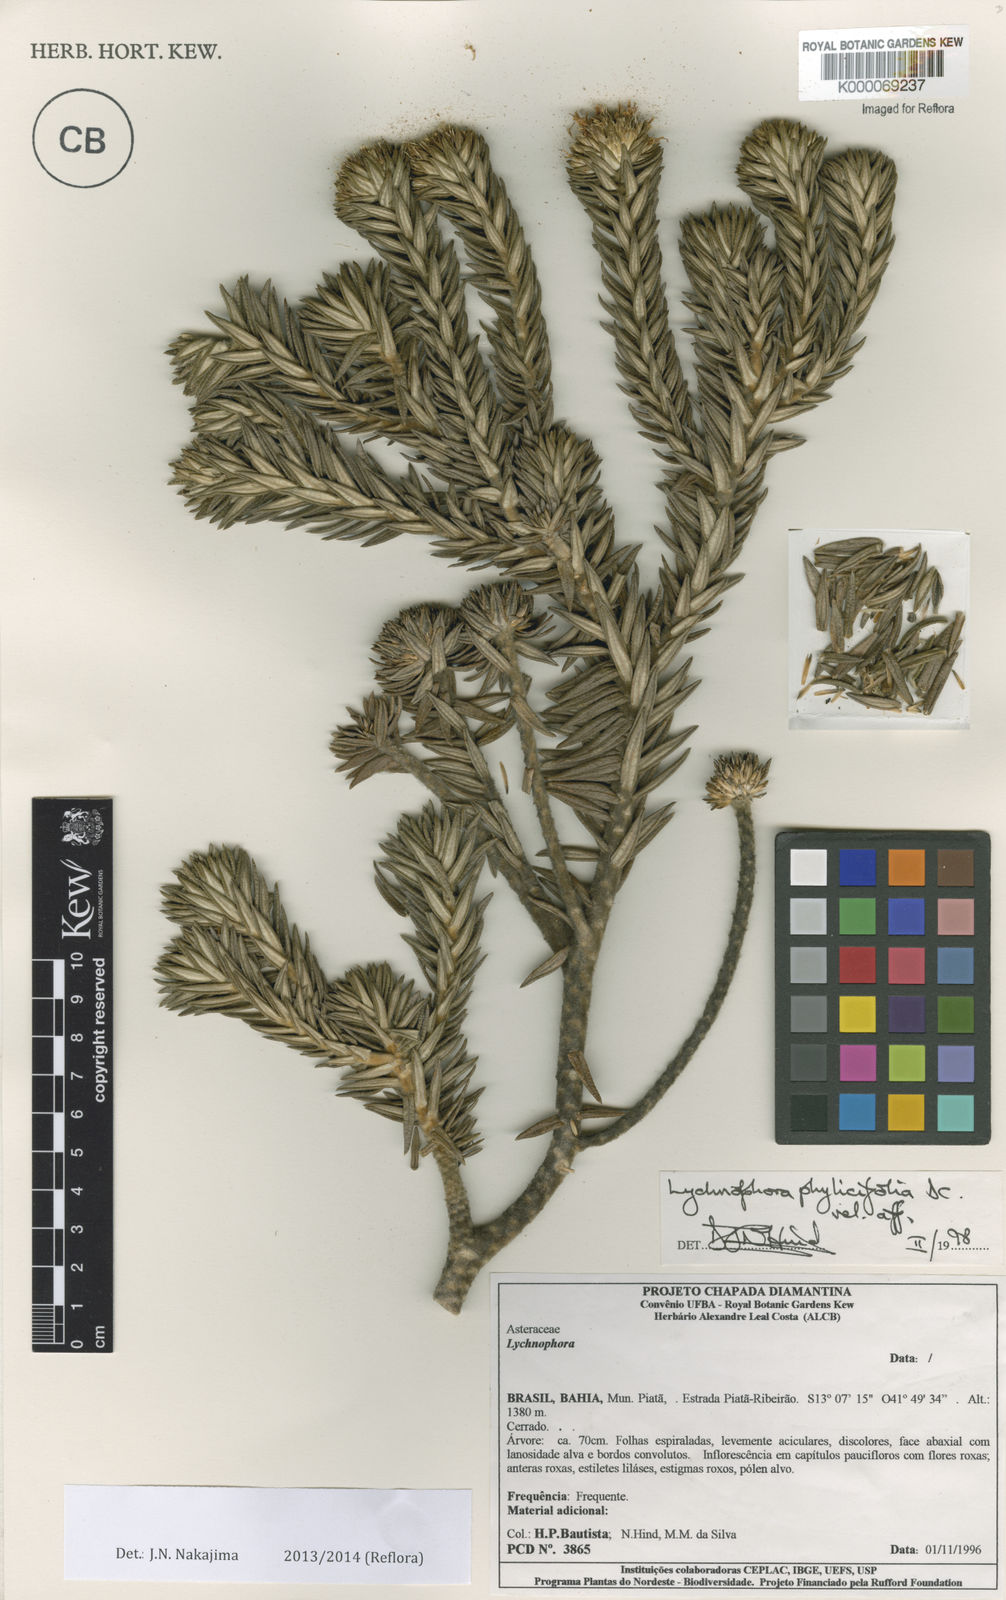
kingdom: Plantae
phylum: Tracheophyta
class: Magnoliopsida
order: Asterales
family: Asteraceae
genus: Lychnophora
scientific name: Lychnophora phylicifolia
